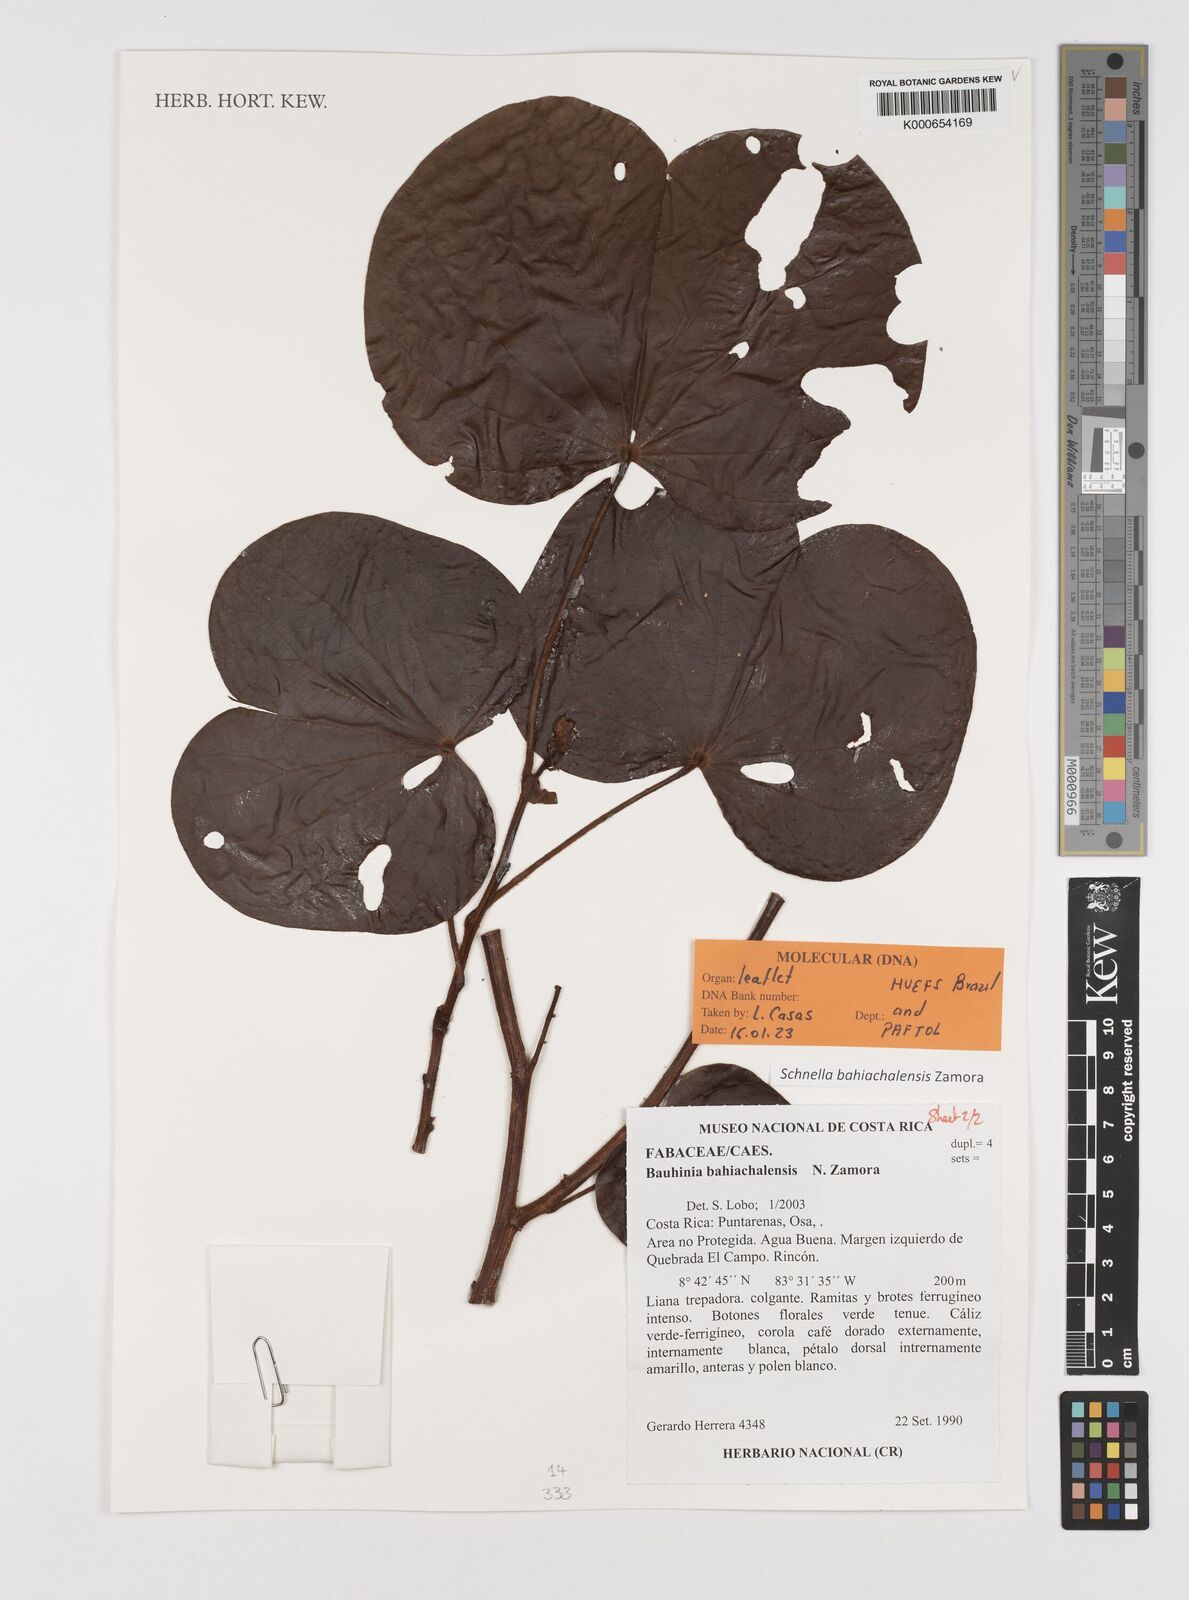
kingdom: Plantae
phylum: Tracheophyta
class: Magnoliopsida
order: Fabales
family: Fabaceae
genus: Bauhinia
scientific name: Bauhinia
